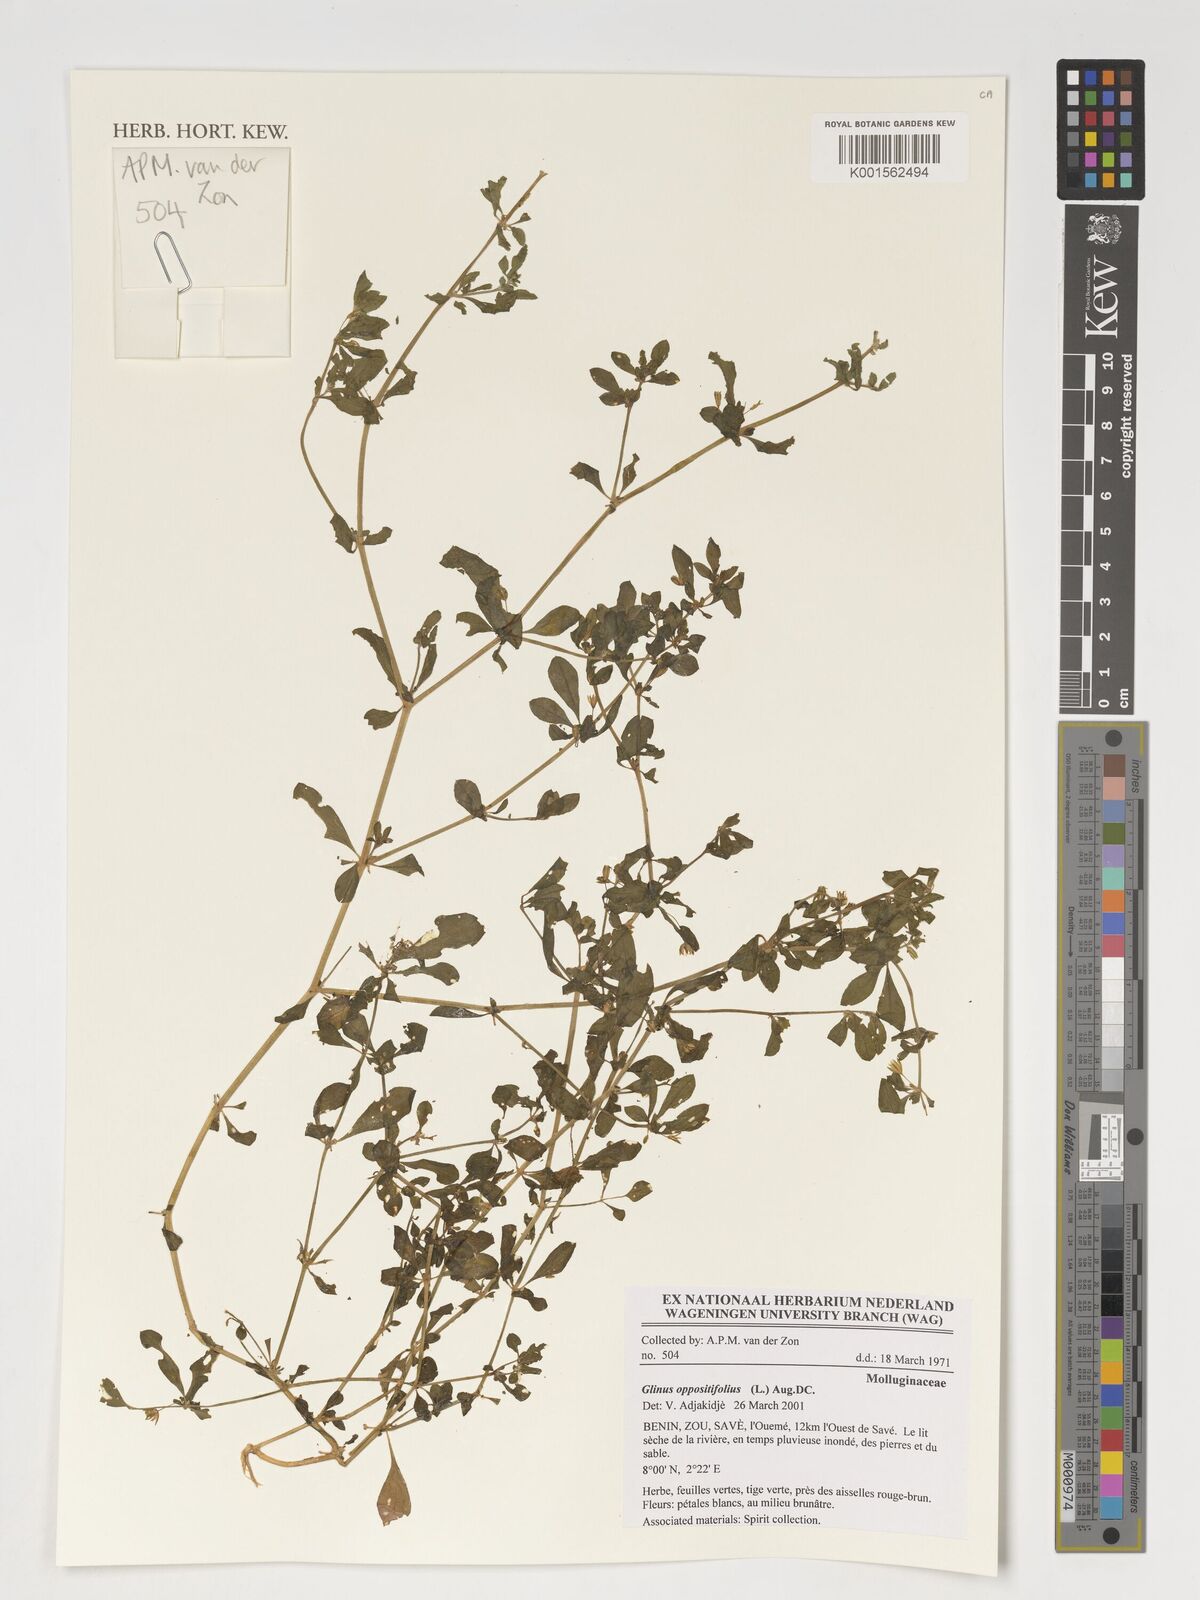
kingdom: Plantae
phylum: Tracheophyta
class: Magnoliopsida
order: Caryophyllales
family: Molluginaceae
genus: Glinus
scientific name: Glinus oppositifolius
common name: Slender carpetweed
